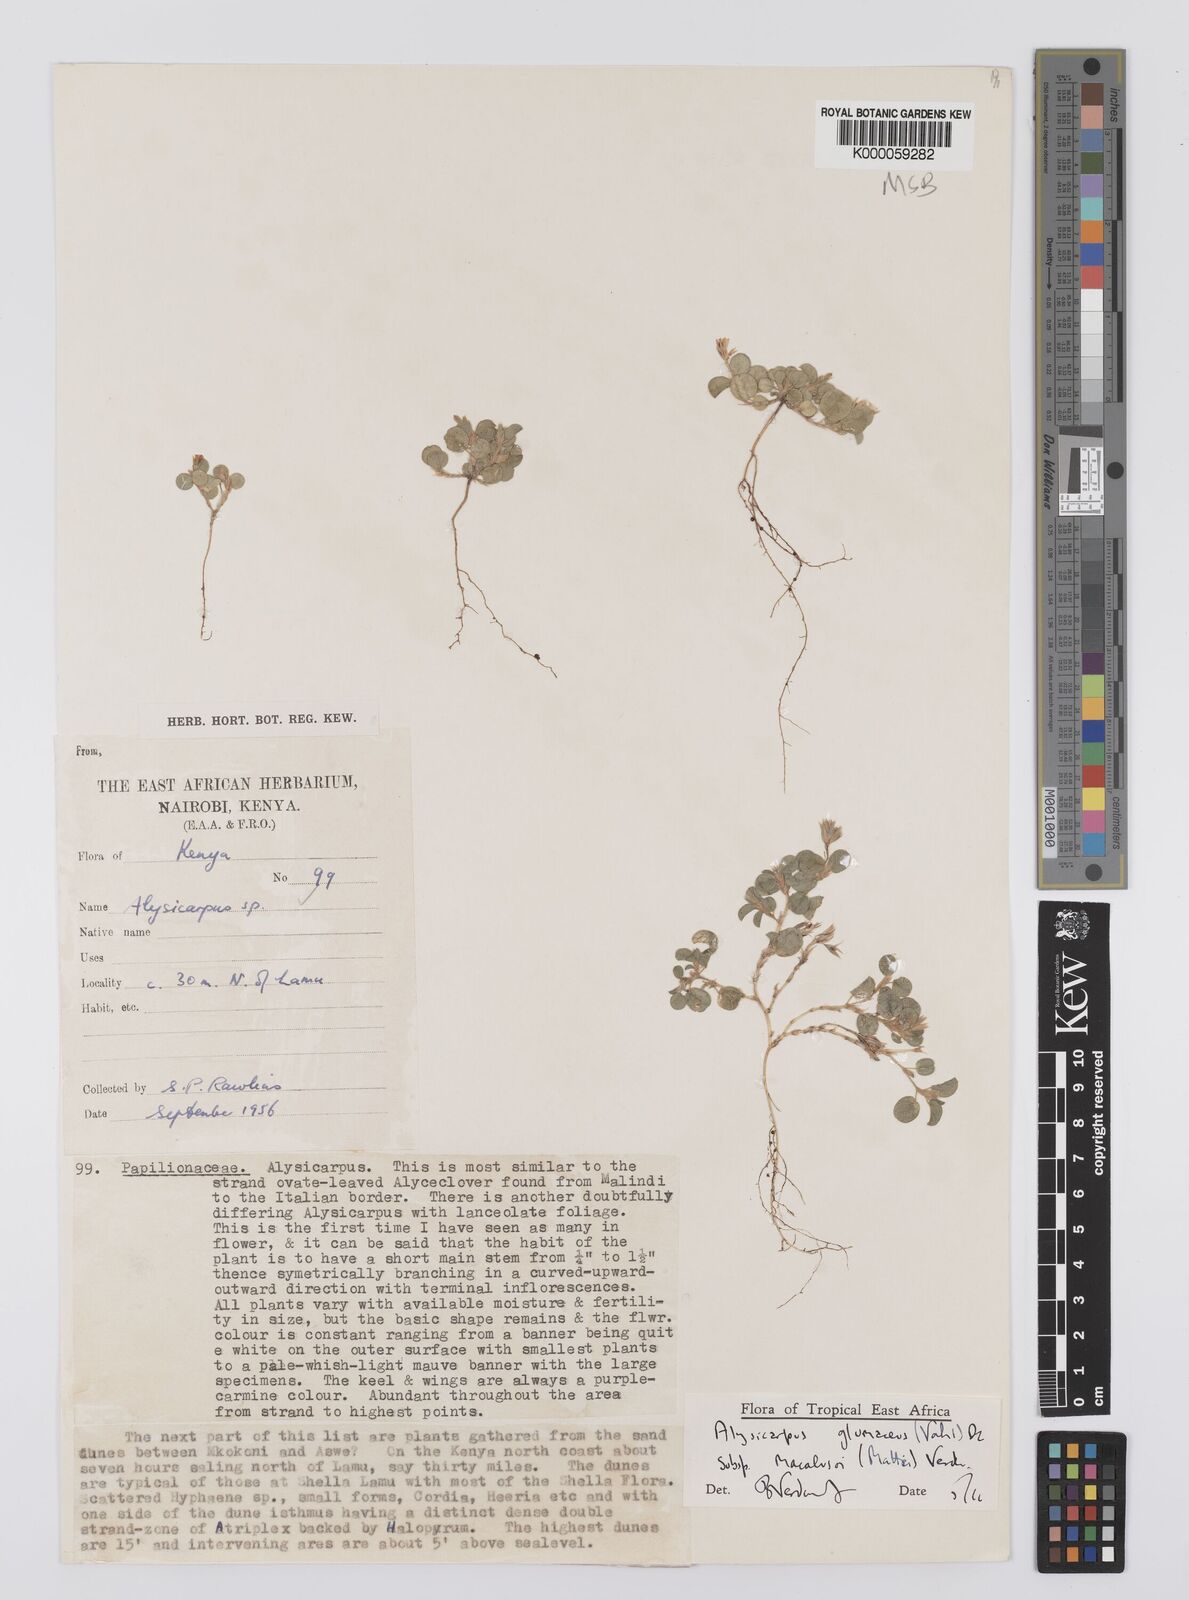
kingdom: Plantae
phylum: Tracheophyta
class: Magnoliopsida
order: Fabales
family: Fabaceae
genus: Alysicarpus
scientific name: Alysicarpus glumaceus
